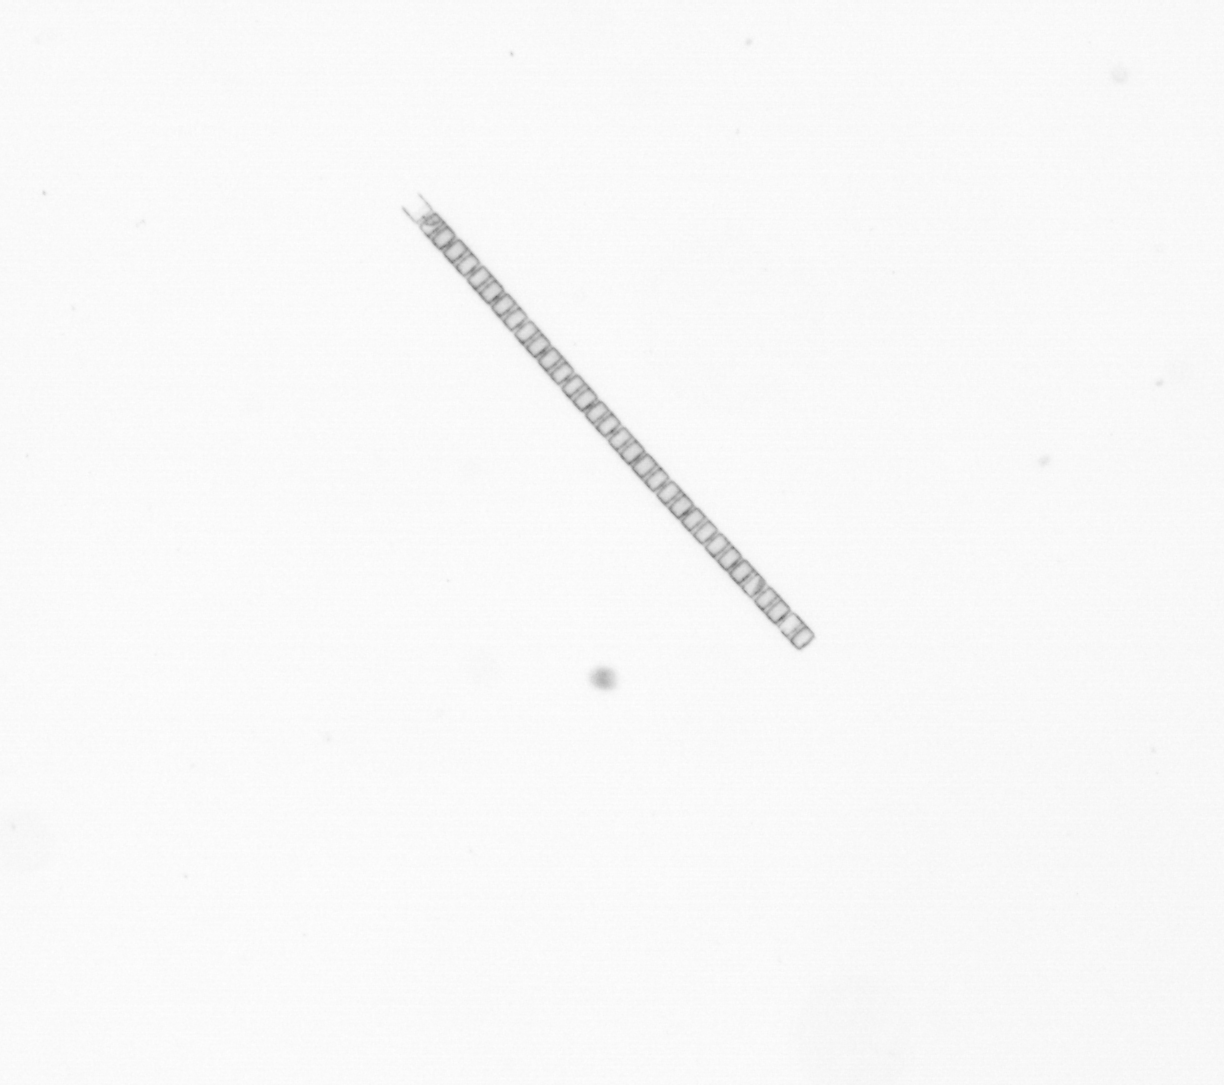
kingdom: Chromista
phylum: Ochrophyta
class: Bacillariophyceae
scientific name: Bacillariophyceae
